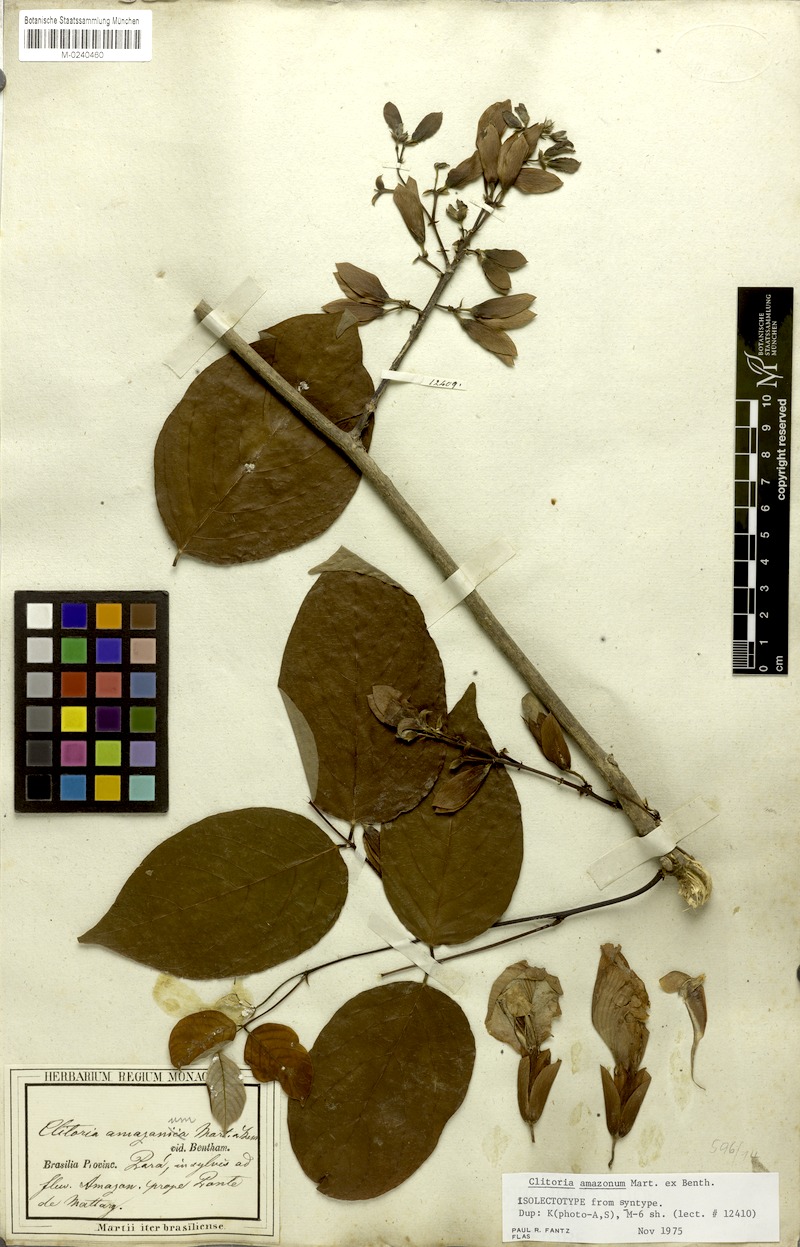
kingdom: Plantae
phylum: Tracheophyta
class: Magnoliopsida
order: Fabales
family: Fabaceae
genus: Clitoria
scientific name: Clitoria amazonum
